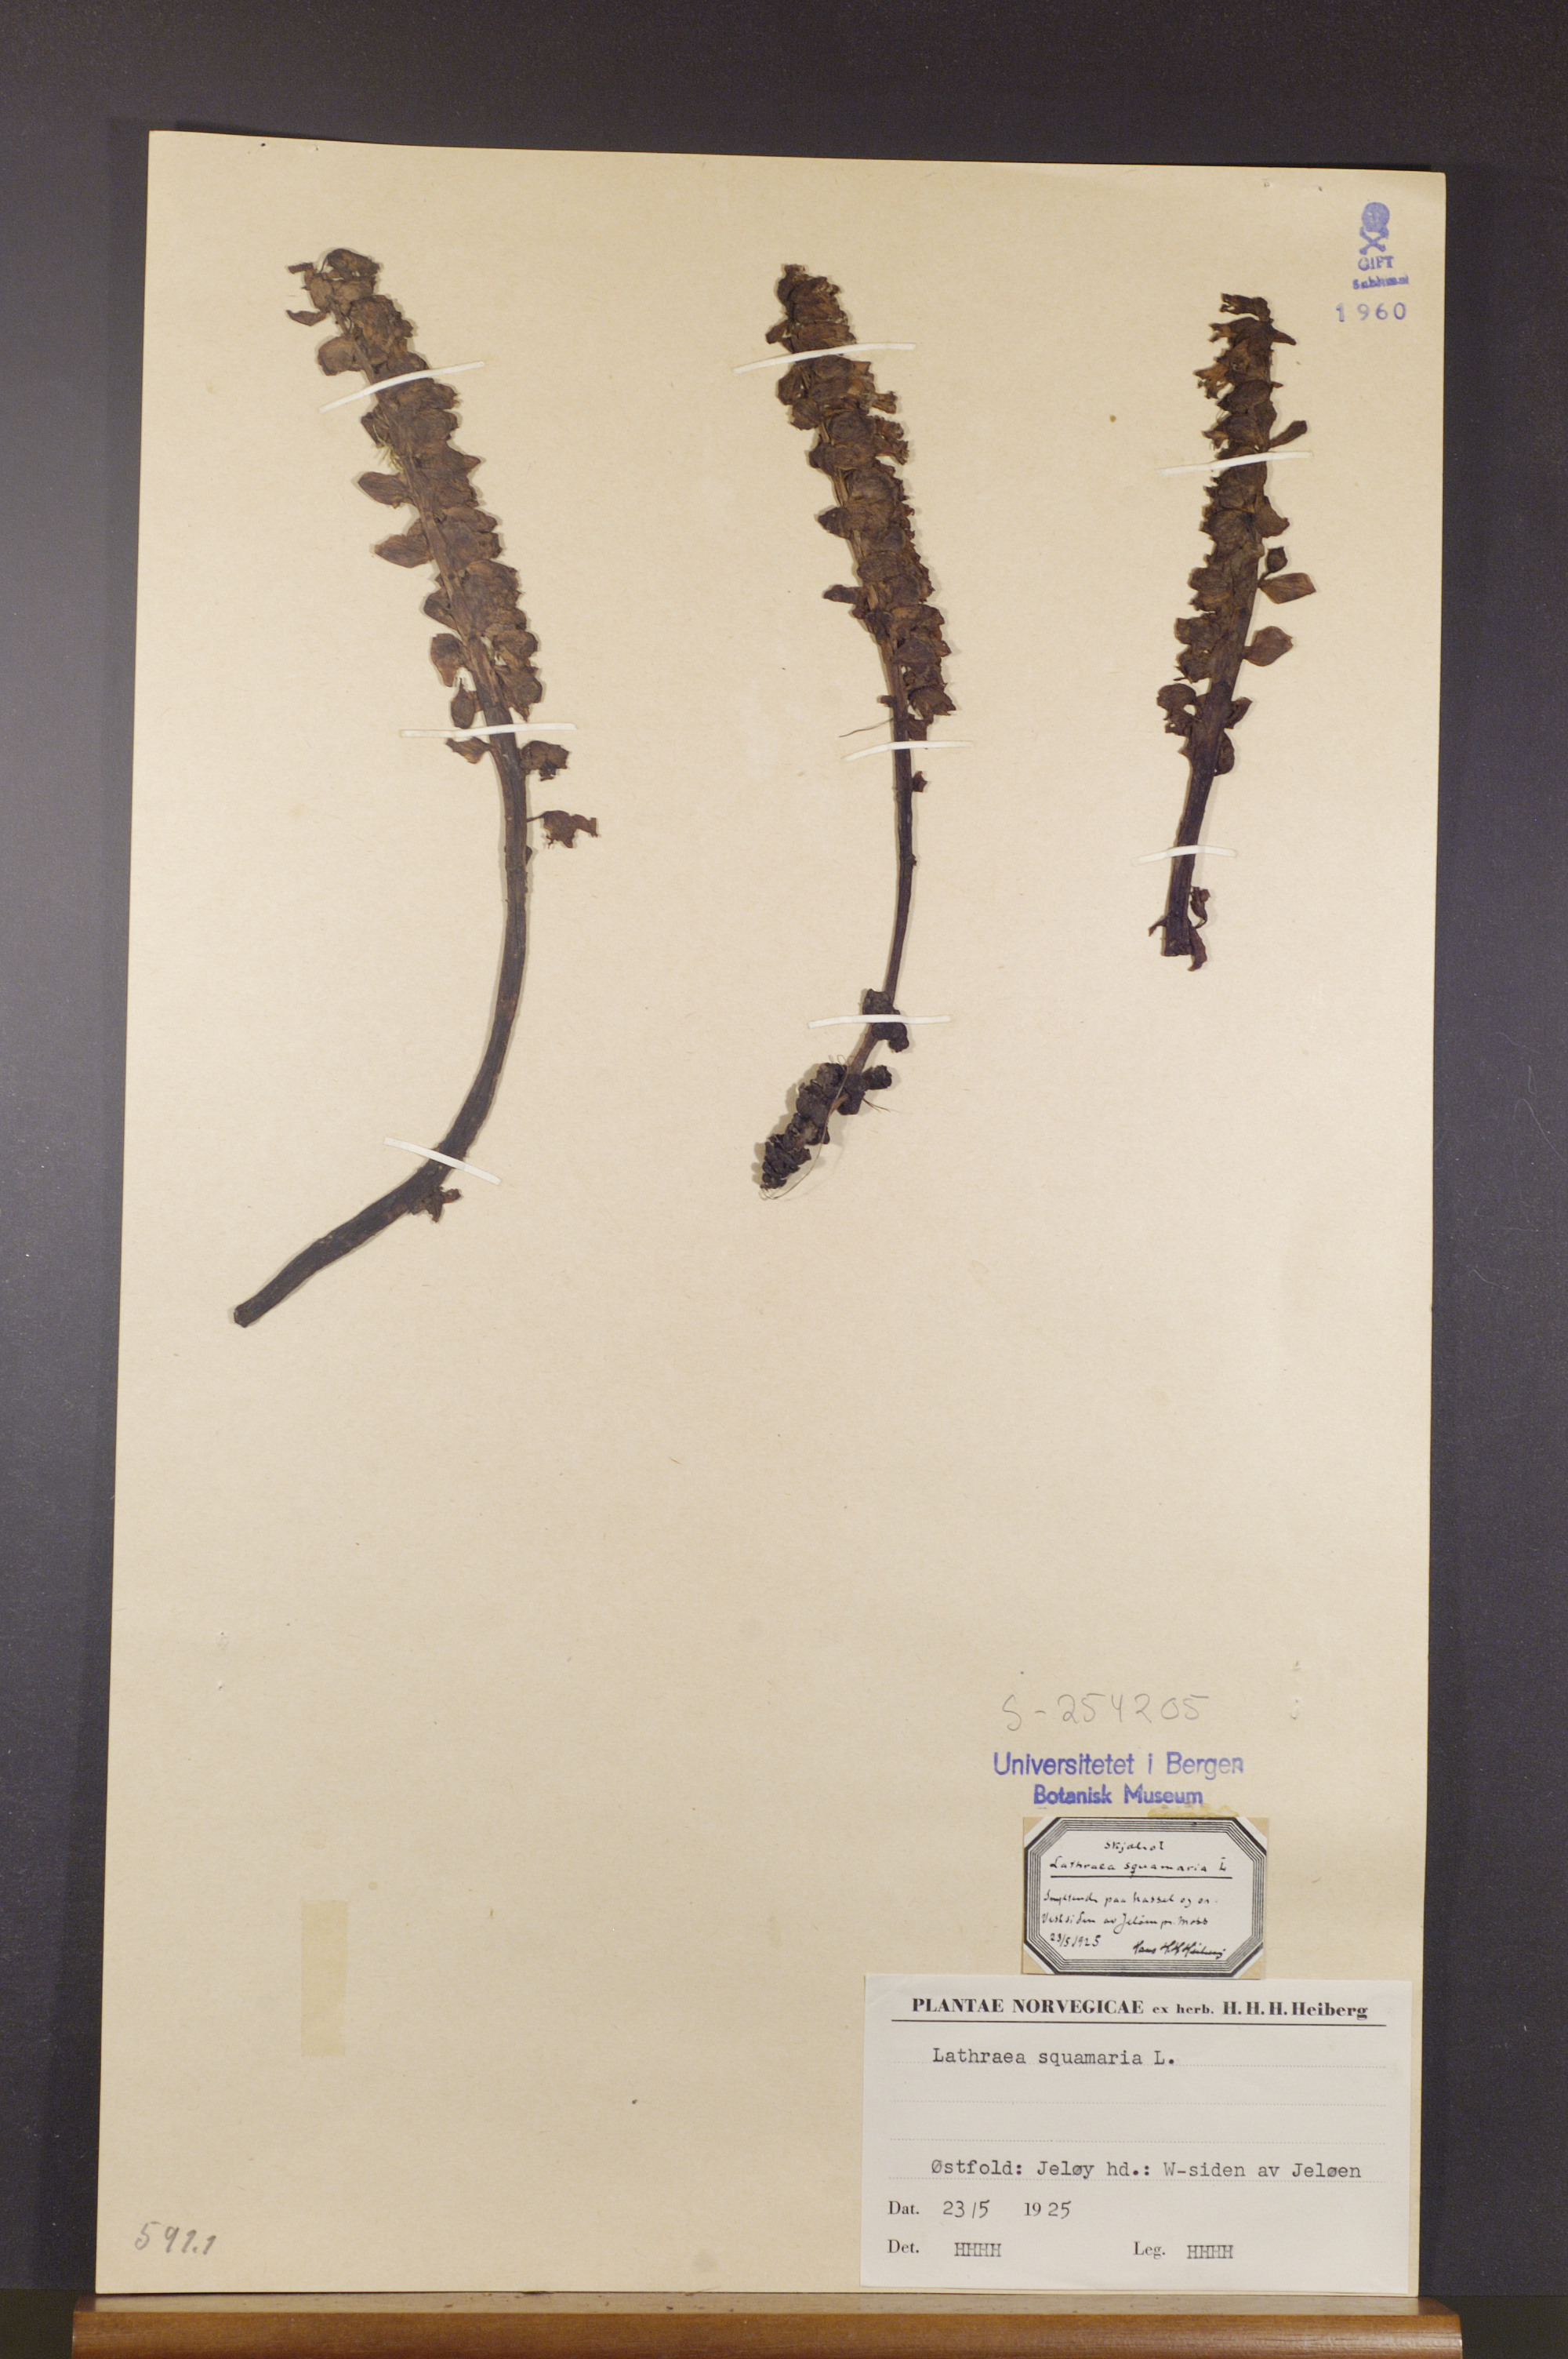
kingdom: Plantae
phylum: Tracheophyta
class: Magnoliopsida
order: Lamiales
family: Orobanchaceae
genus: Lathraea
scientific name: Lathraea squamaria
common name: Toothwort
